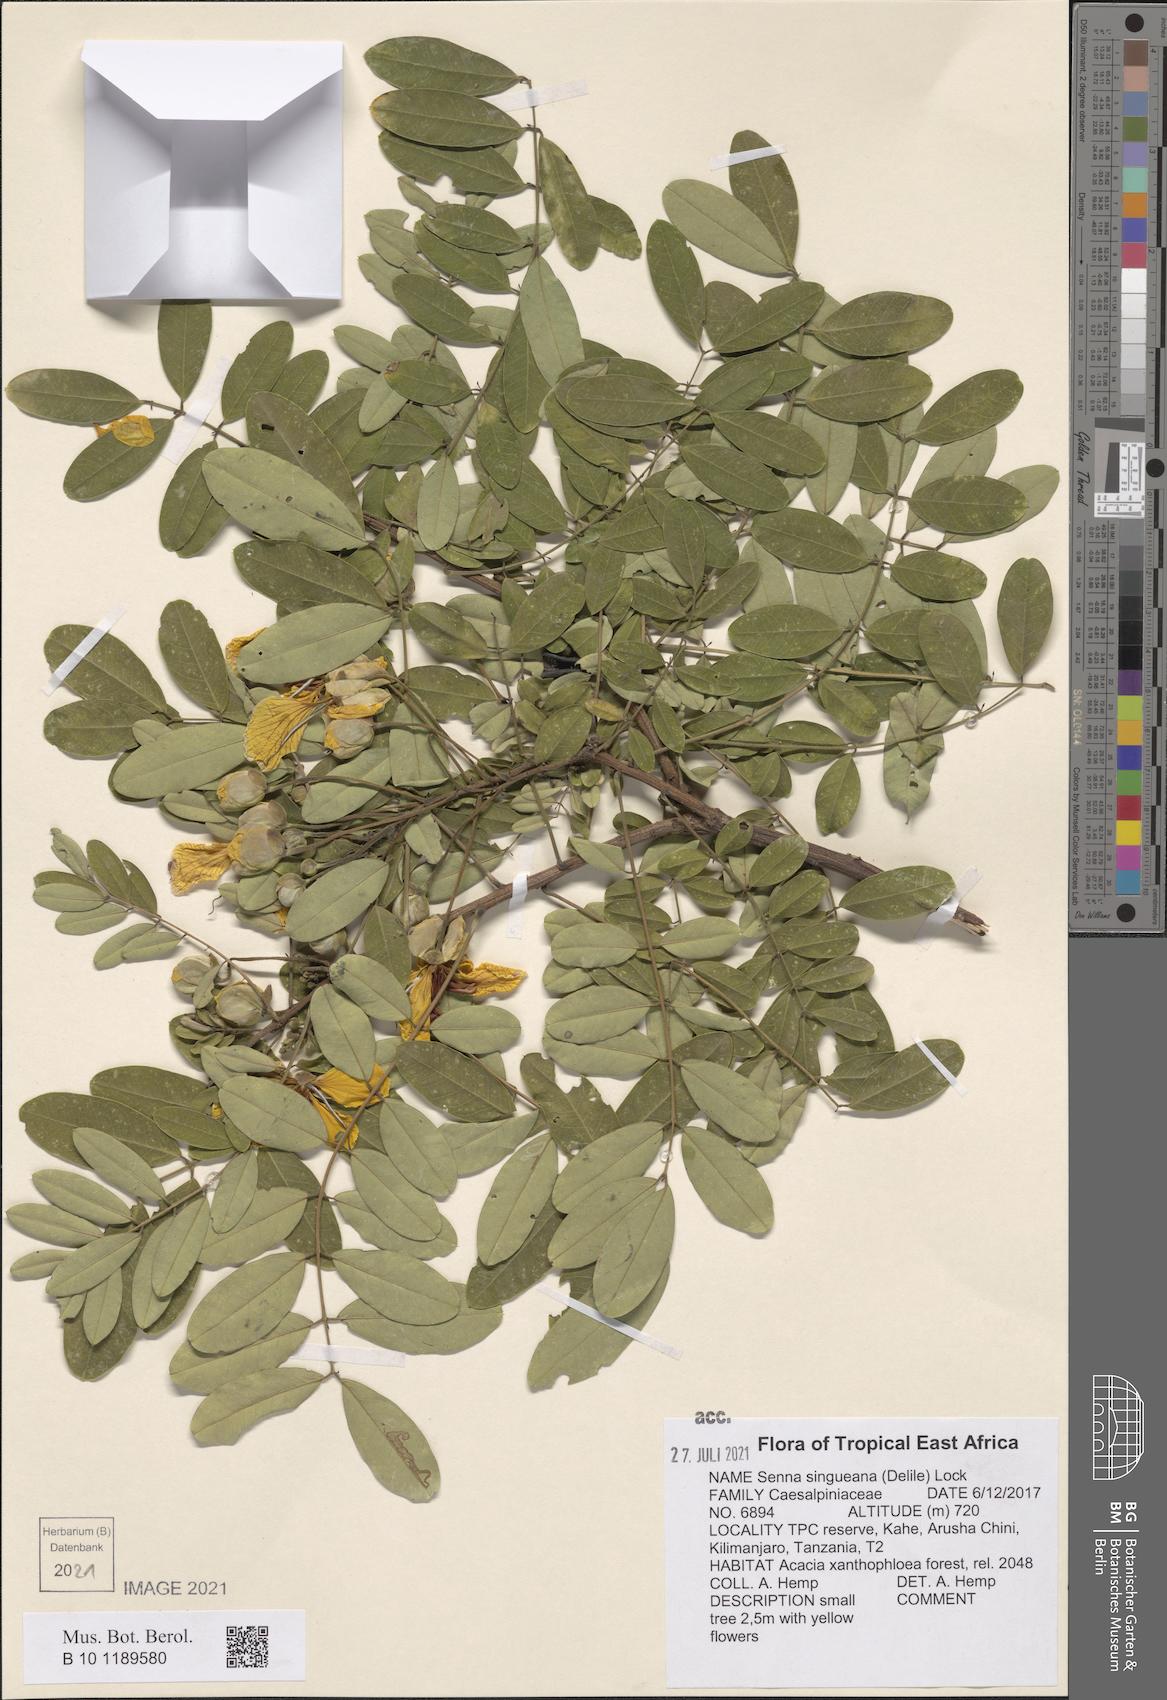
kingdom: Plantae
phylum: Tracheophyta
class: Magnoliopsida
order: Fabales
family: Fabaceae
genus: Senna
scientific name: Senna singueana
